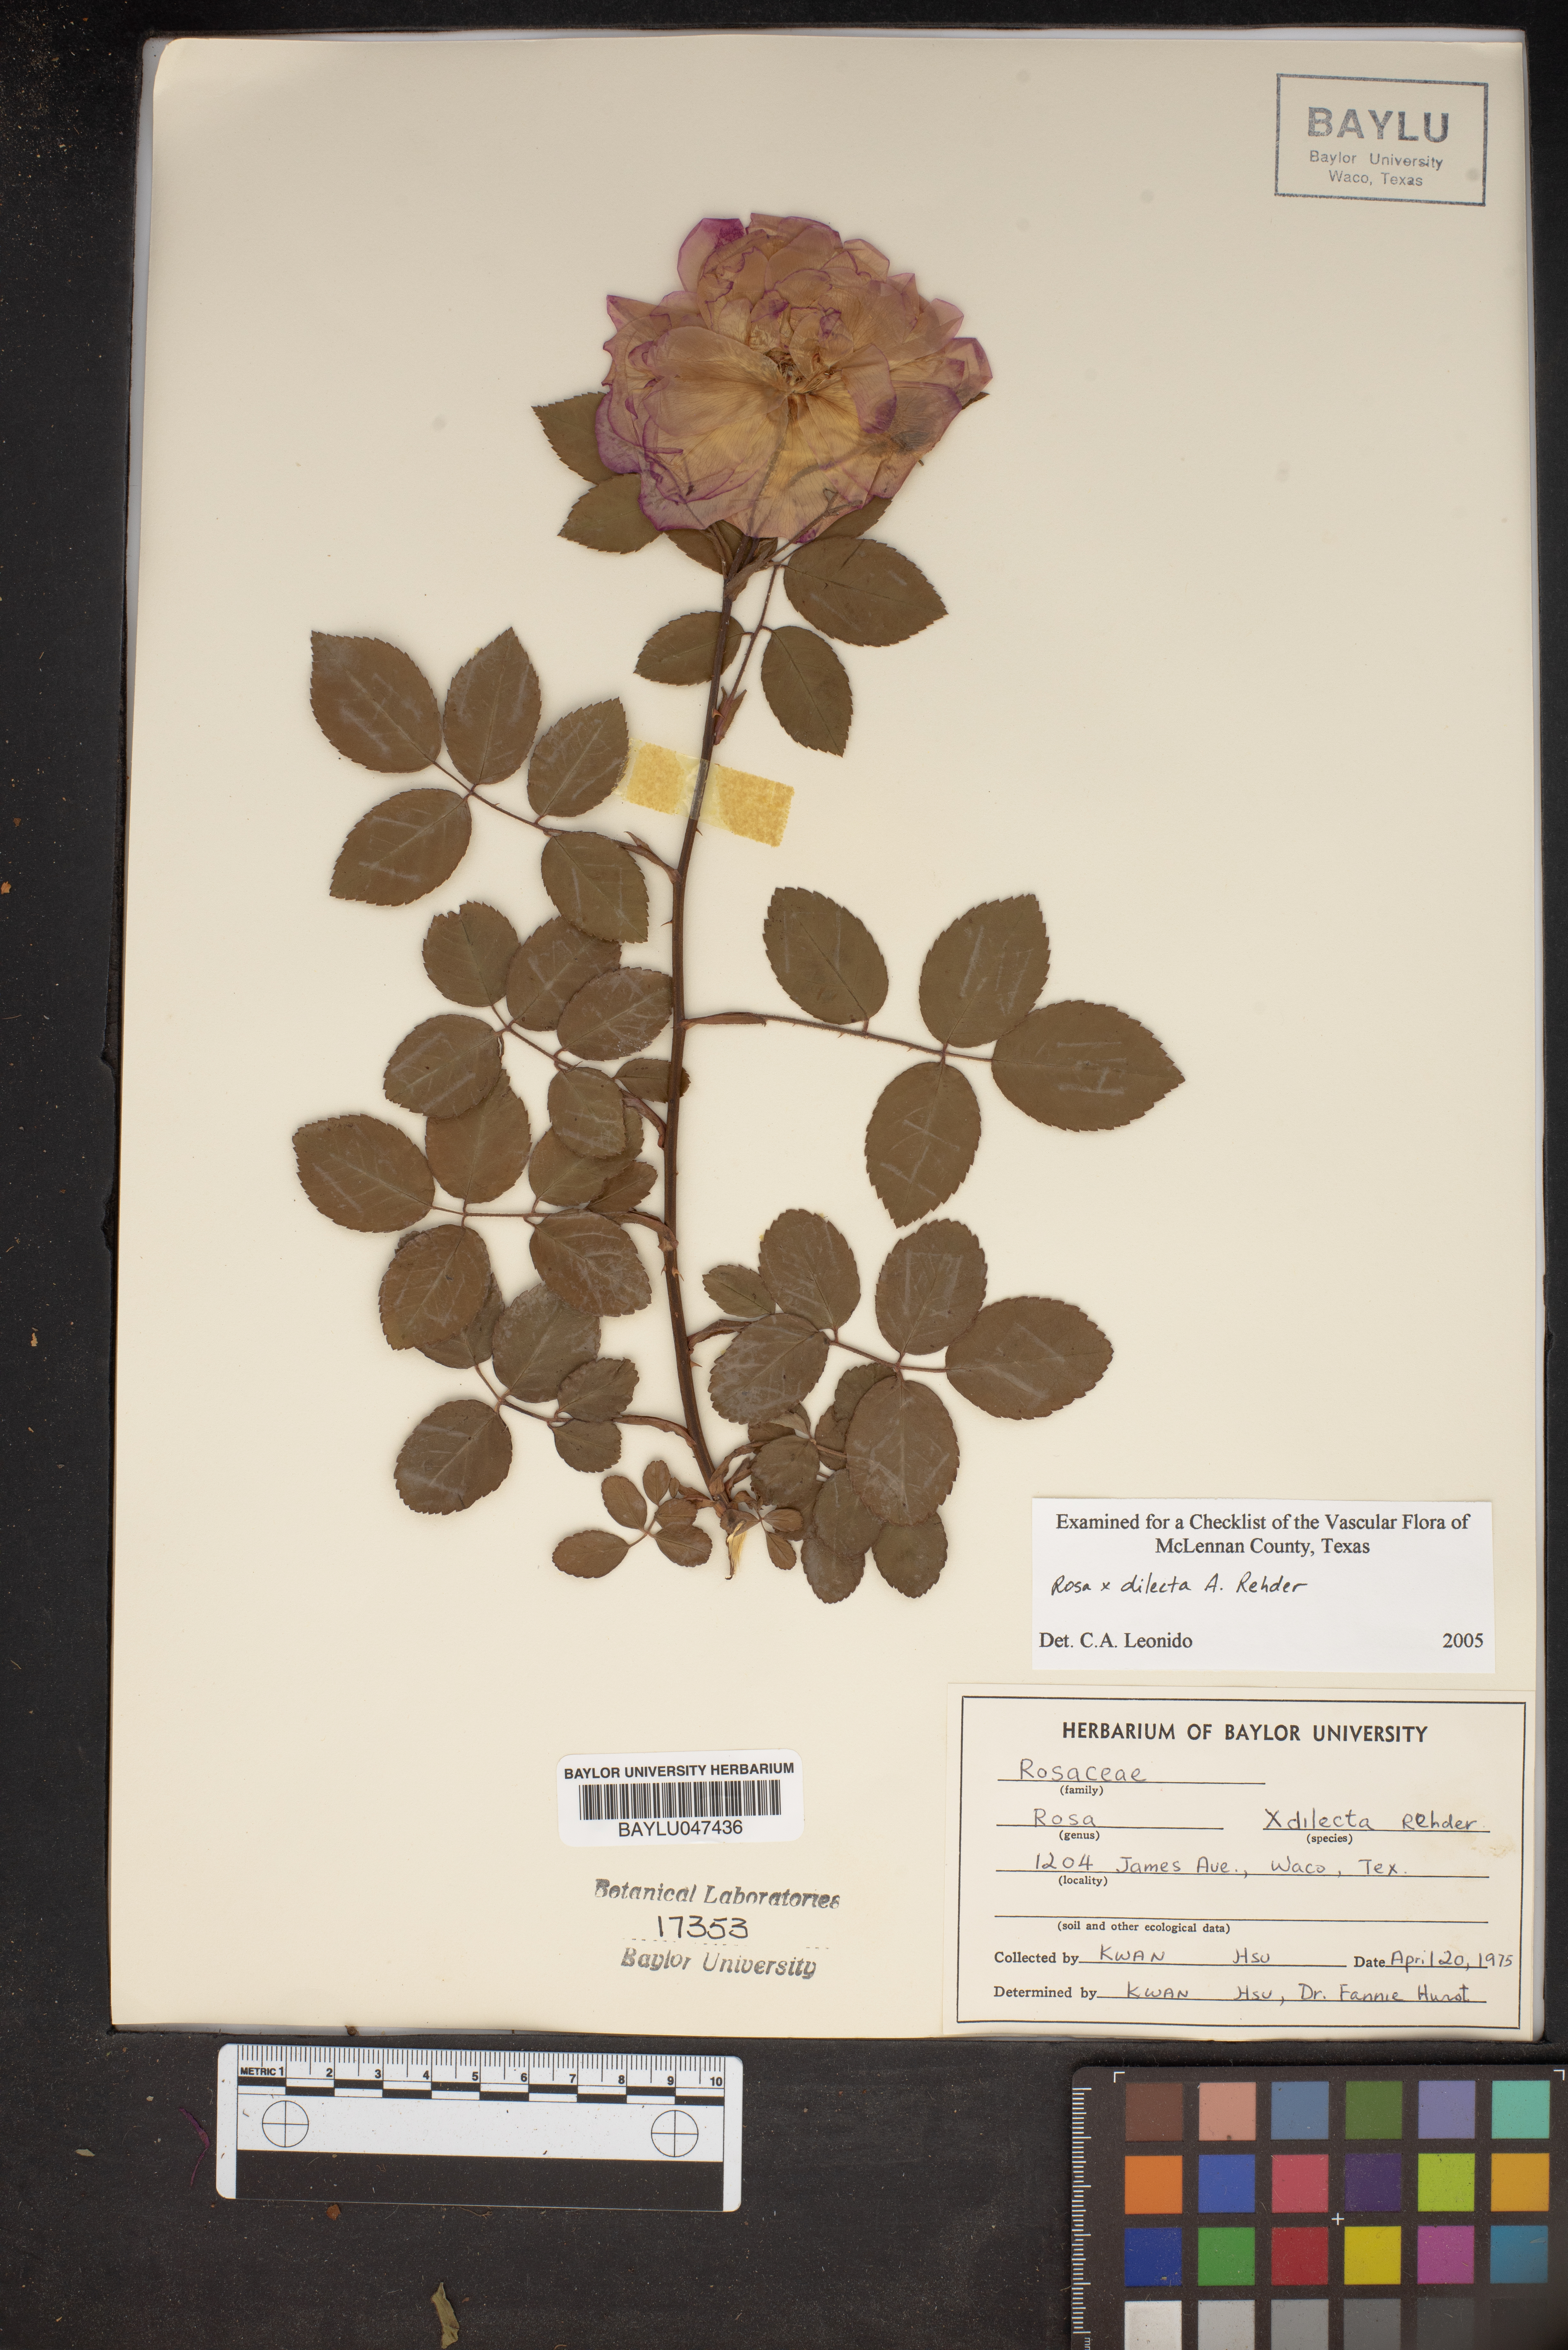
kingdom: Plantae
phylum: Tracheophyta
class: Magnoliopsida
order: Rosales
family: Rosaceae
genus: Rosa
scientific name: Rosa dilecta
